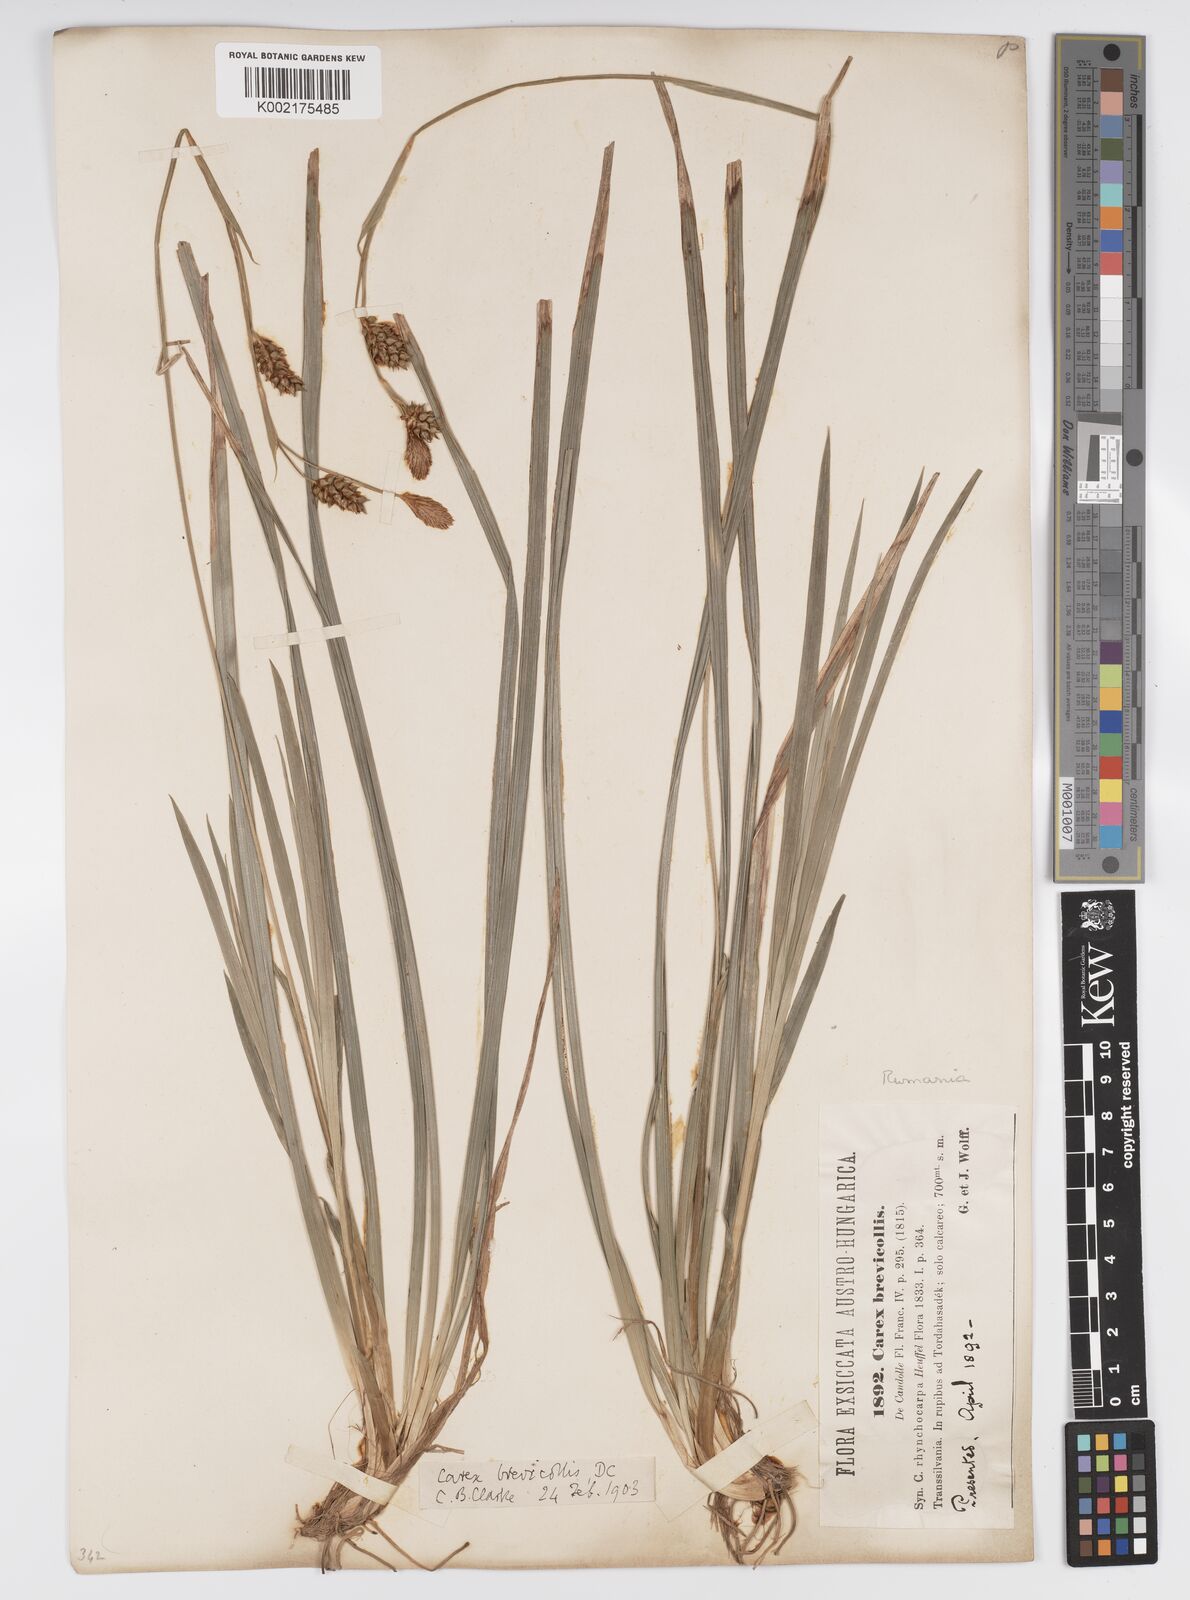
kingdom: Plantae
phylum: Tracheophyta
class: Liliopsida
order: Poales
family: Cyperaceae
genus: Carex
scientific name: Carex brevicollis
